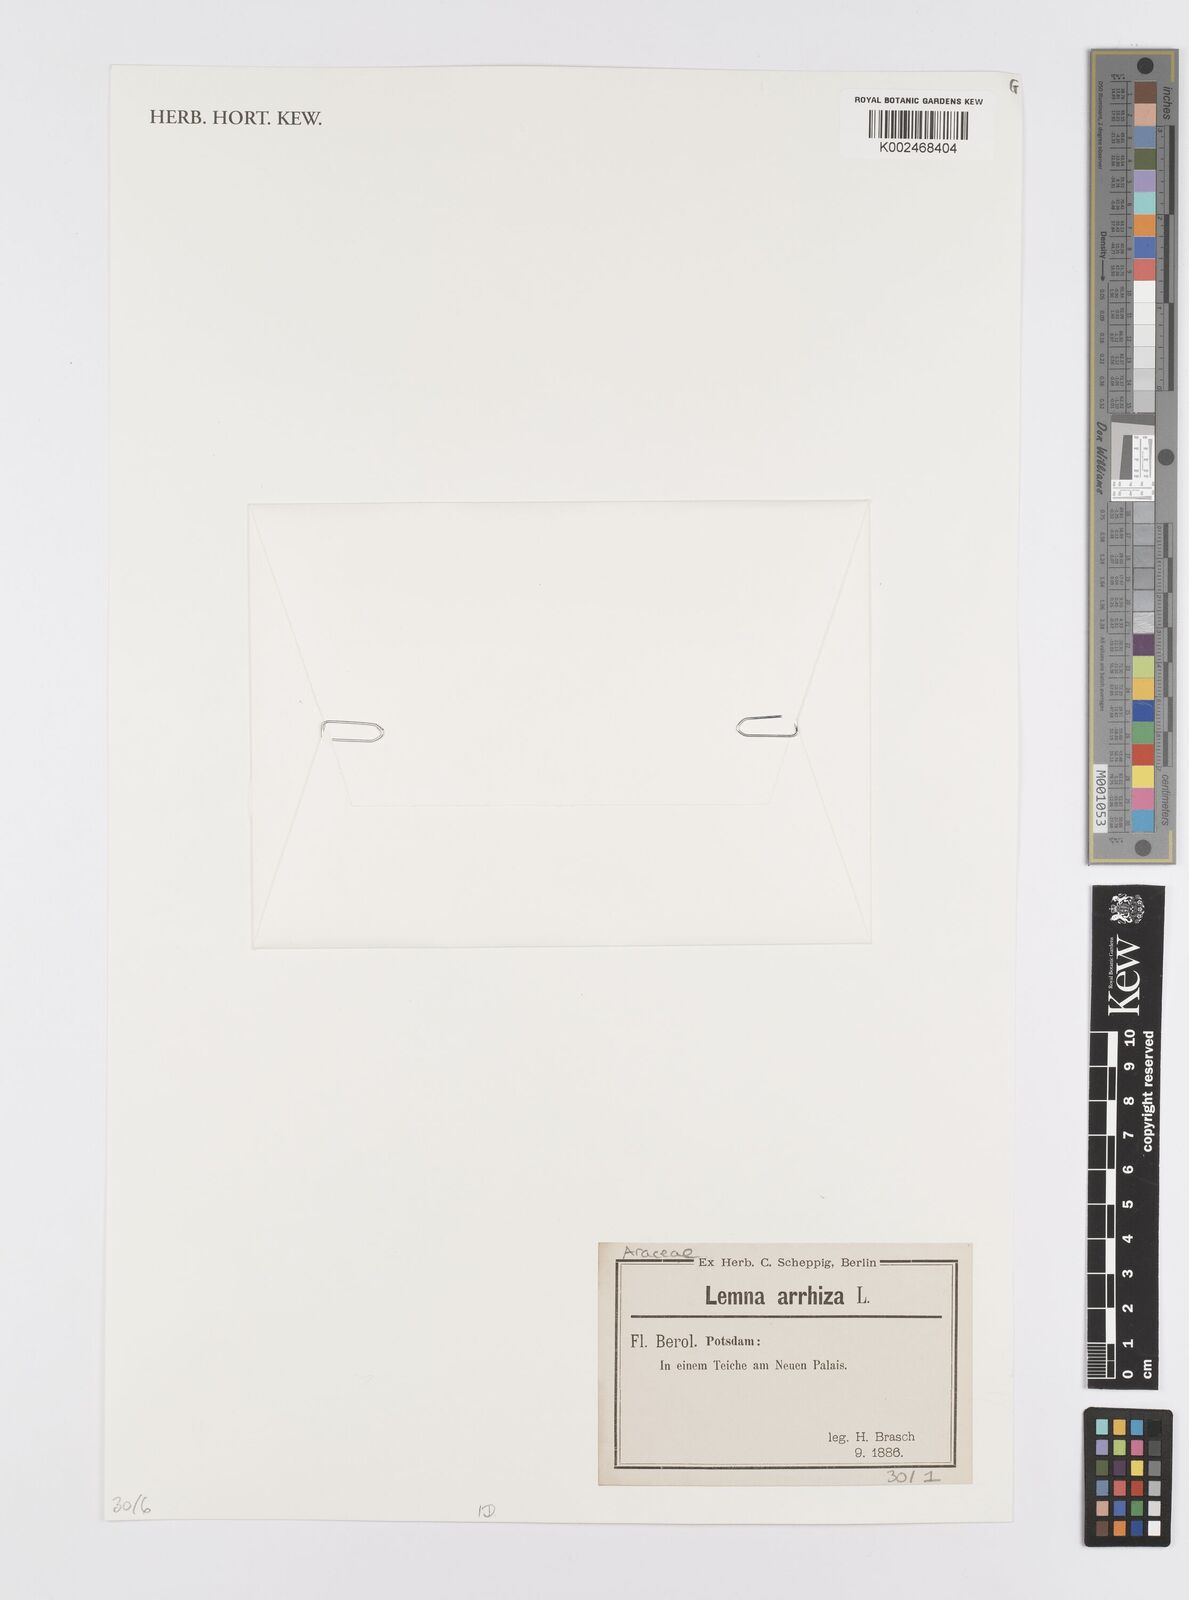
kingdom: Plantae
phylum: Tracheophyta
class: Liliopsida
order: Alismatales
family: Araceae
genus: Wolffia
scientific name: Wolffia arrhiza
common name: Rootless duckweed
